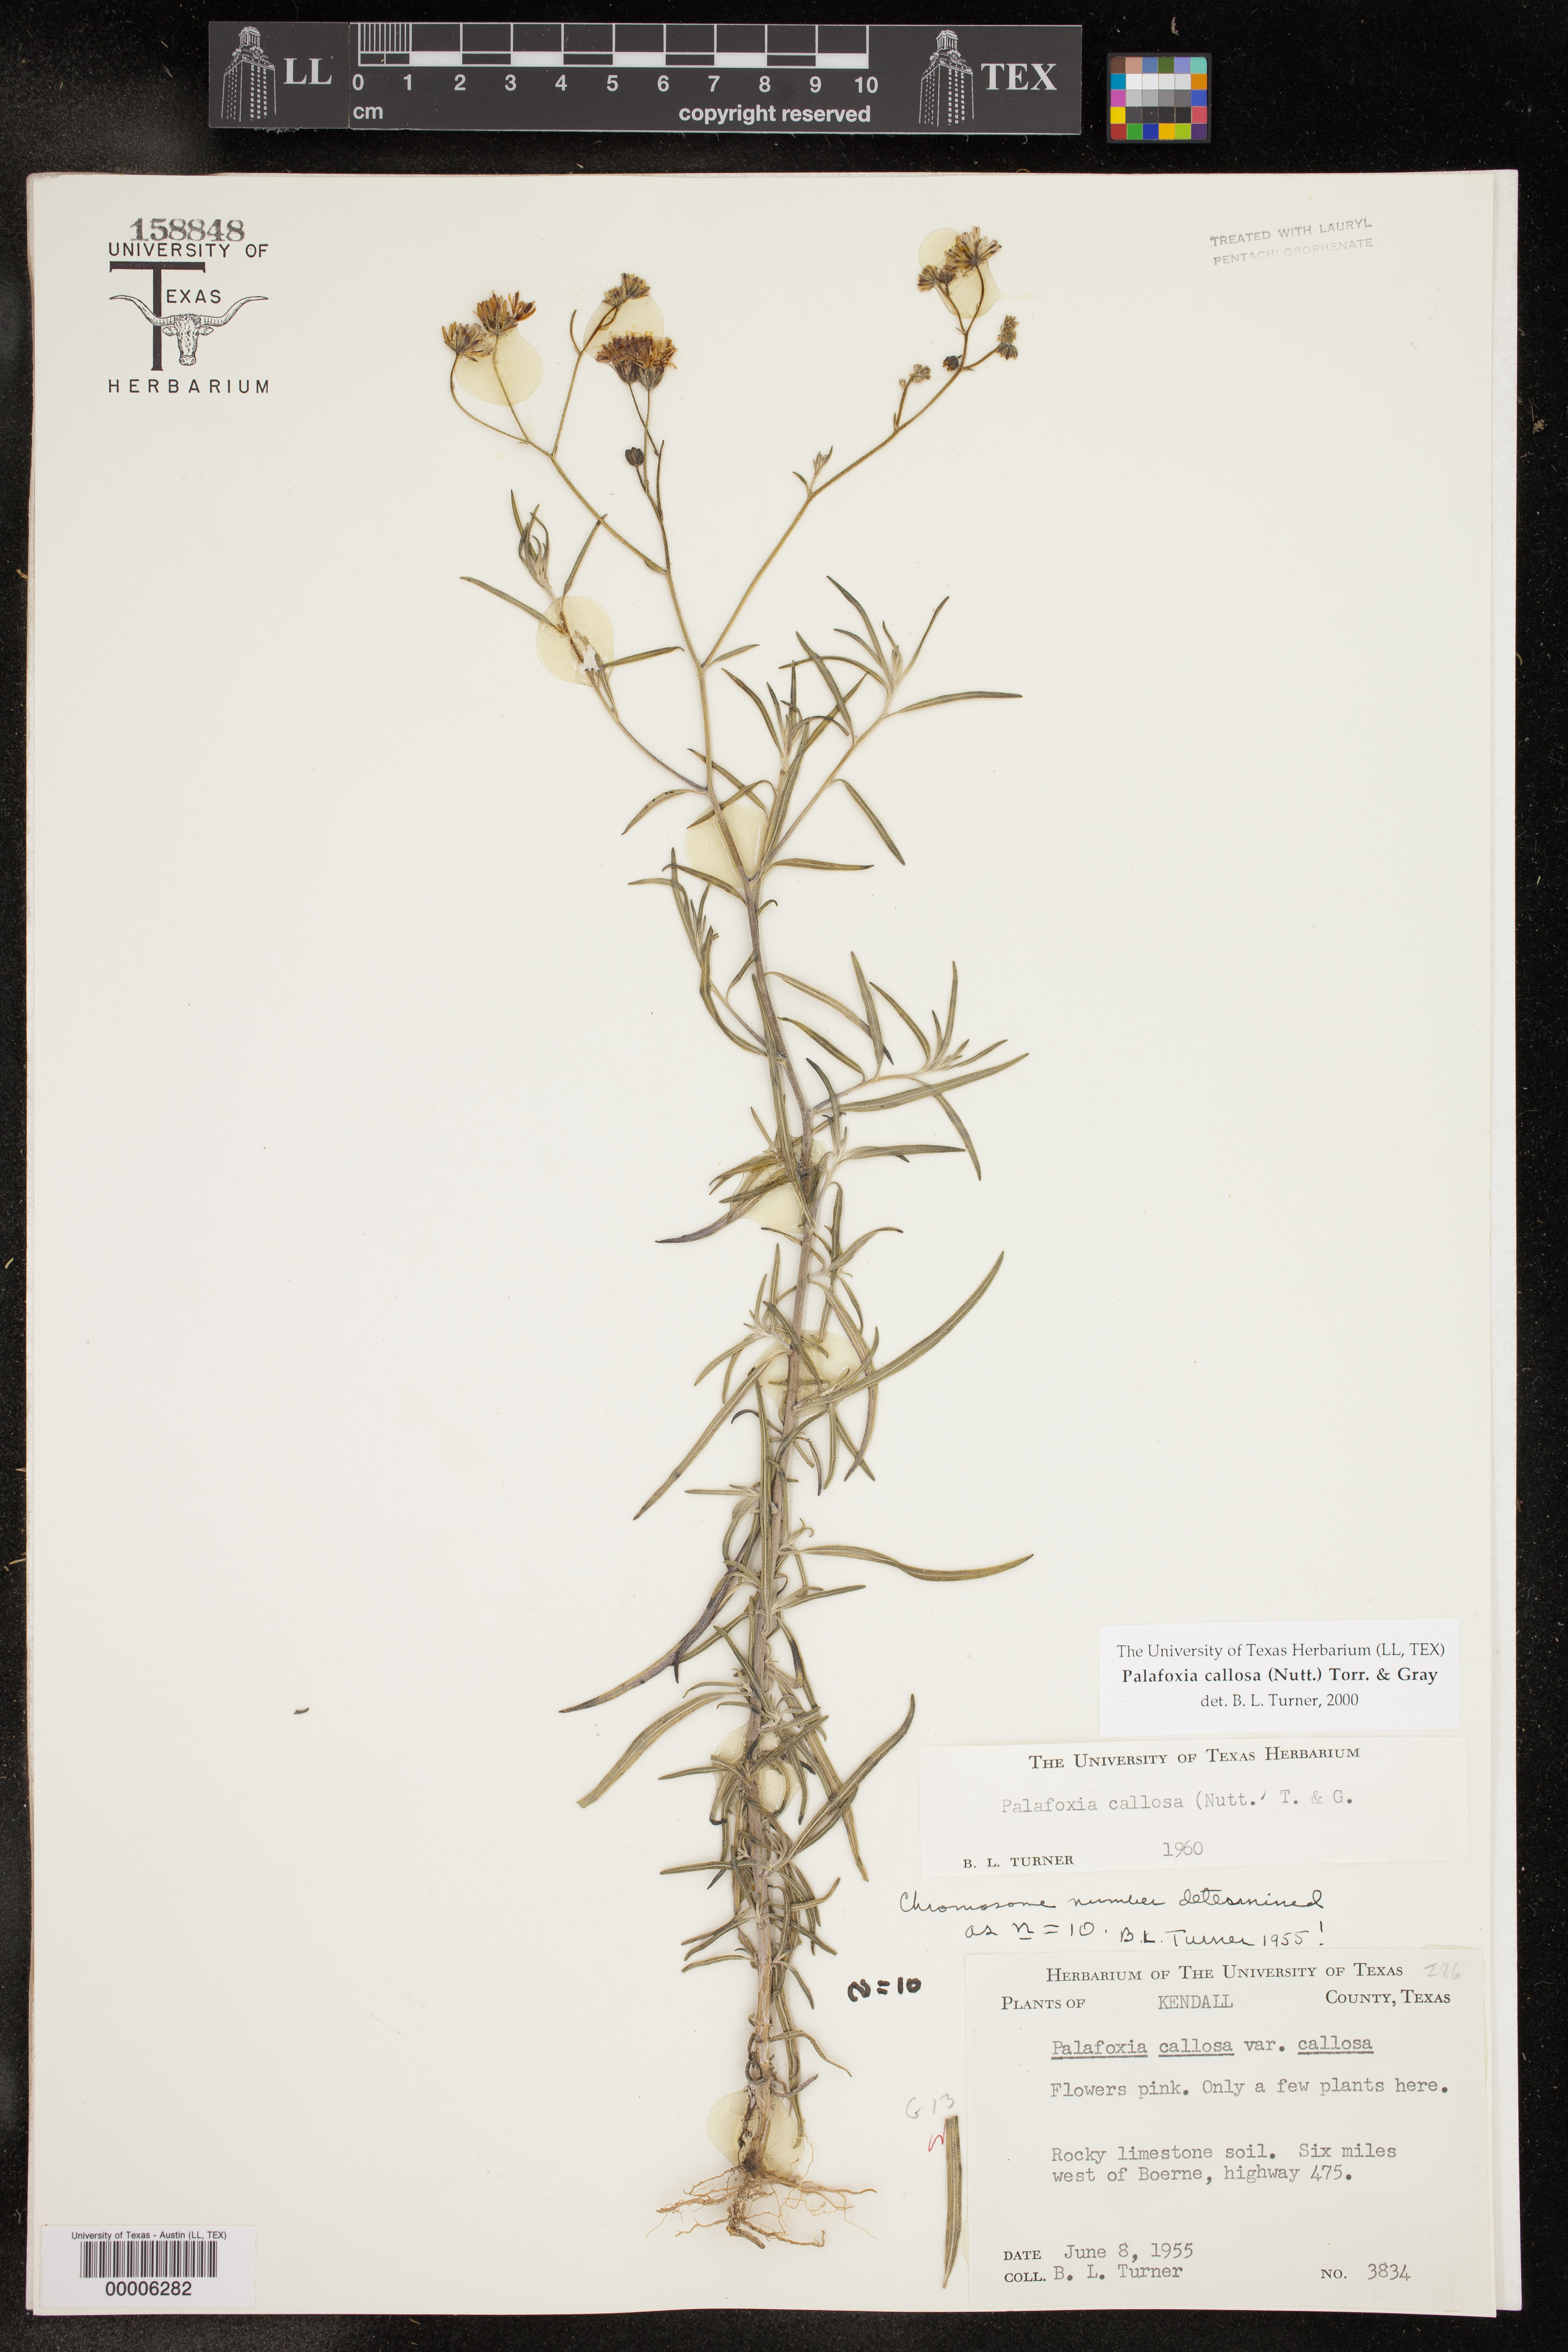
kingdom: Plantae
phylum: Tracheophyta
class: Magnoliopsida
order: Asterales
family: Asteraceae
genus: Palafoxia
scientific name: Palafoxia callosa
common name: Small palafox
